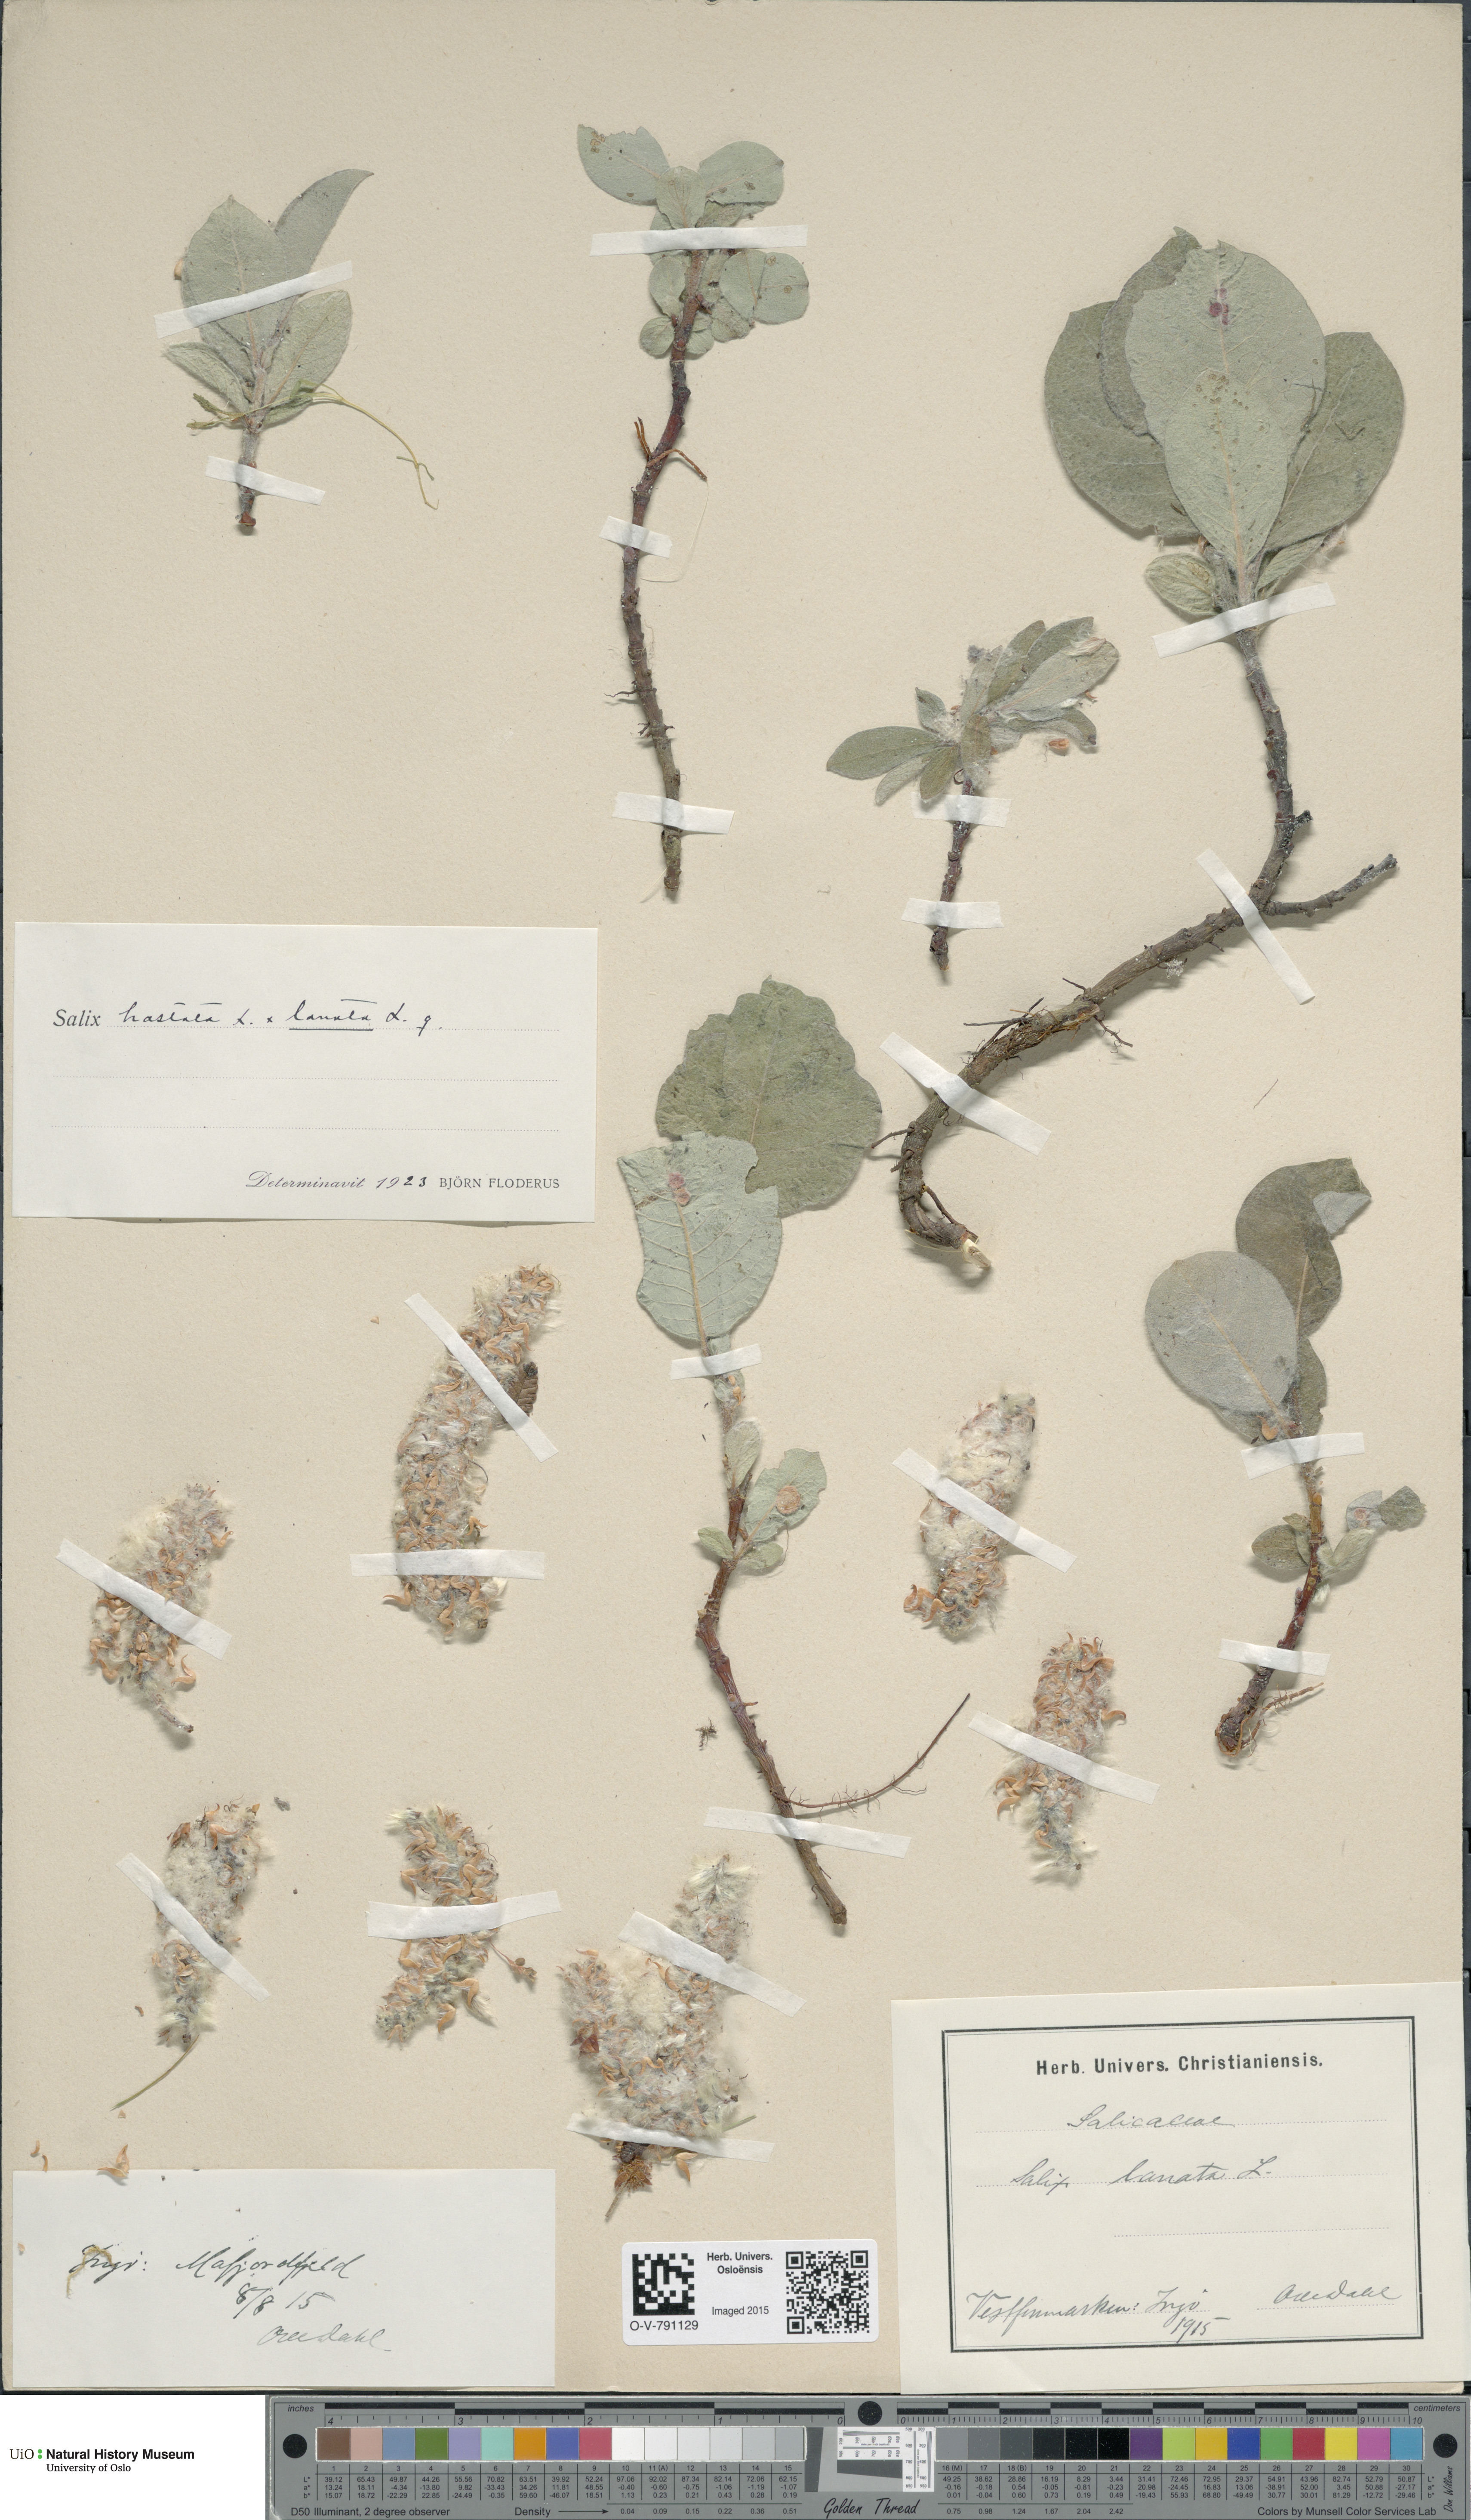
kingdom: Plantae
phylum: Tracheophyta
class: Magnoliopsida
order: Malpighiales
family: Salicaceae
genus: Salix
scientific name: Salix
